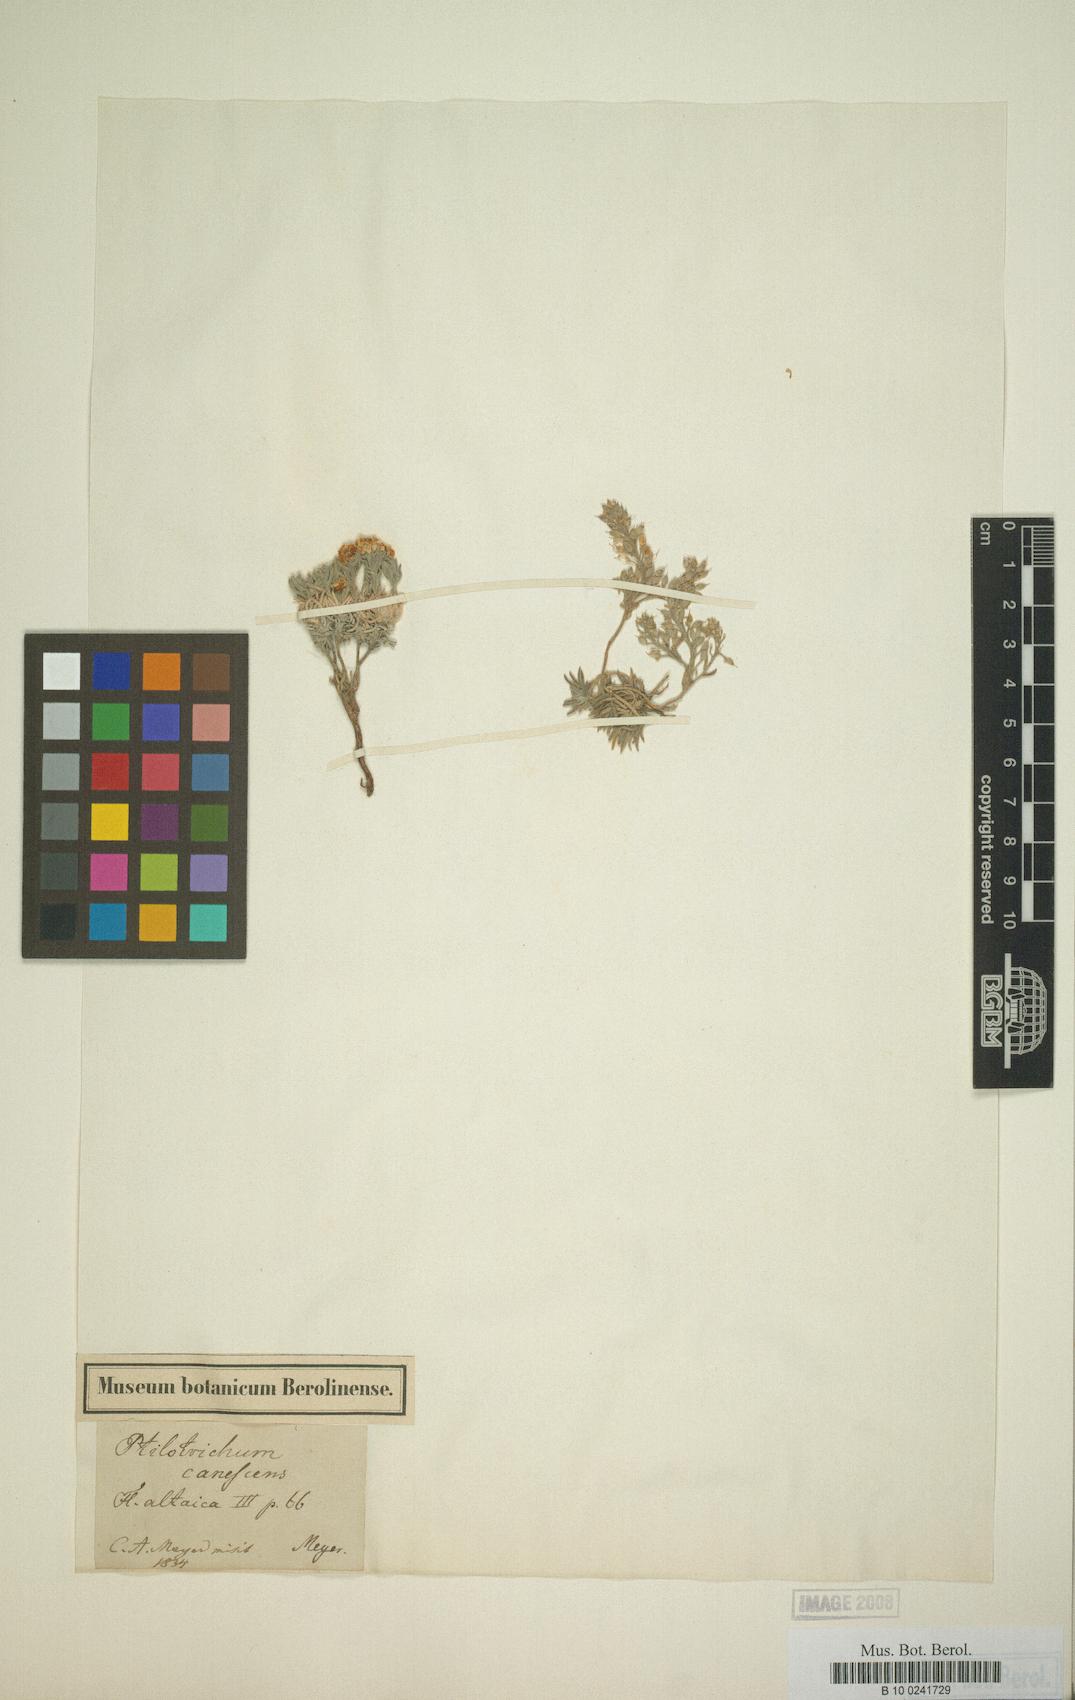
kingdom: Plantae
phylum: Tracheophyta
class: Magnoliopsida
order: Brassicales
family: Brassicaceae
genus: Stevenia
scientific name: Stevenia canescens
